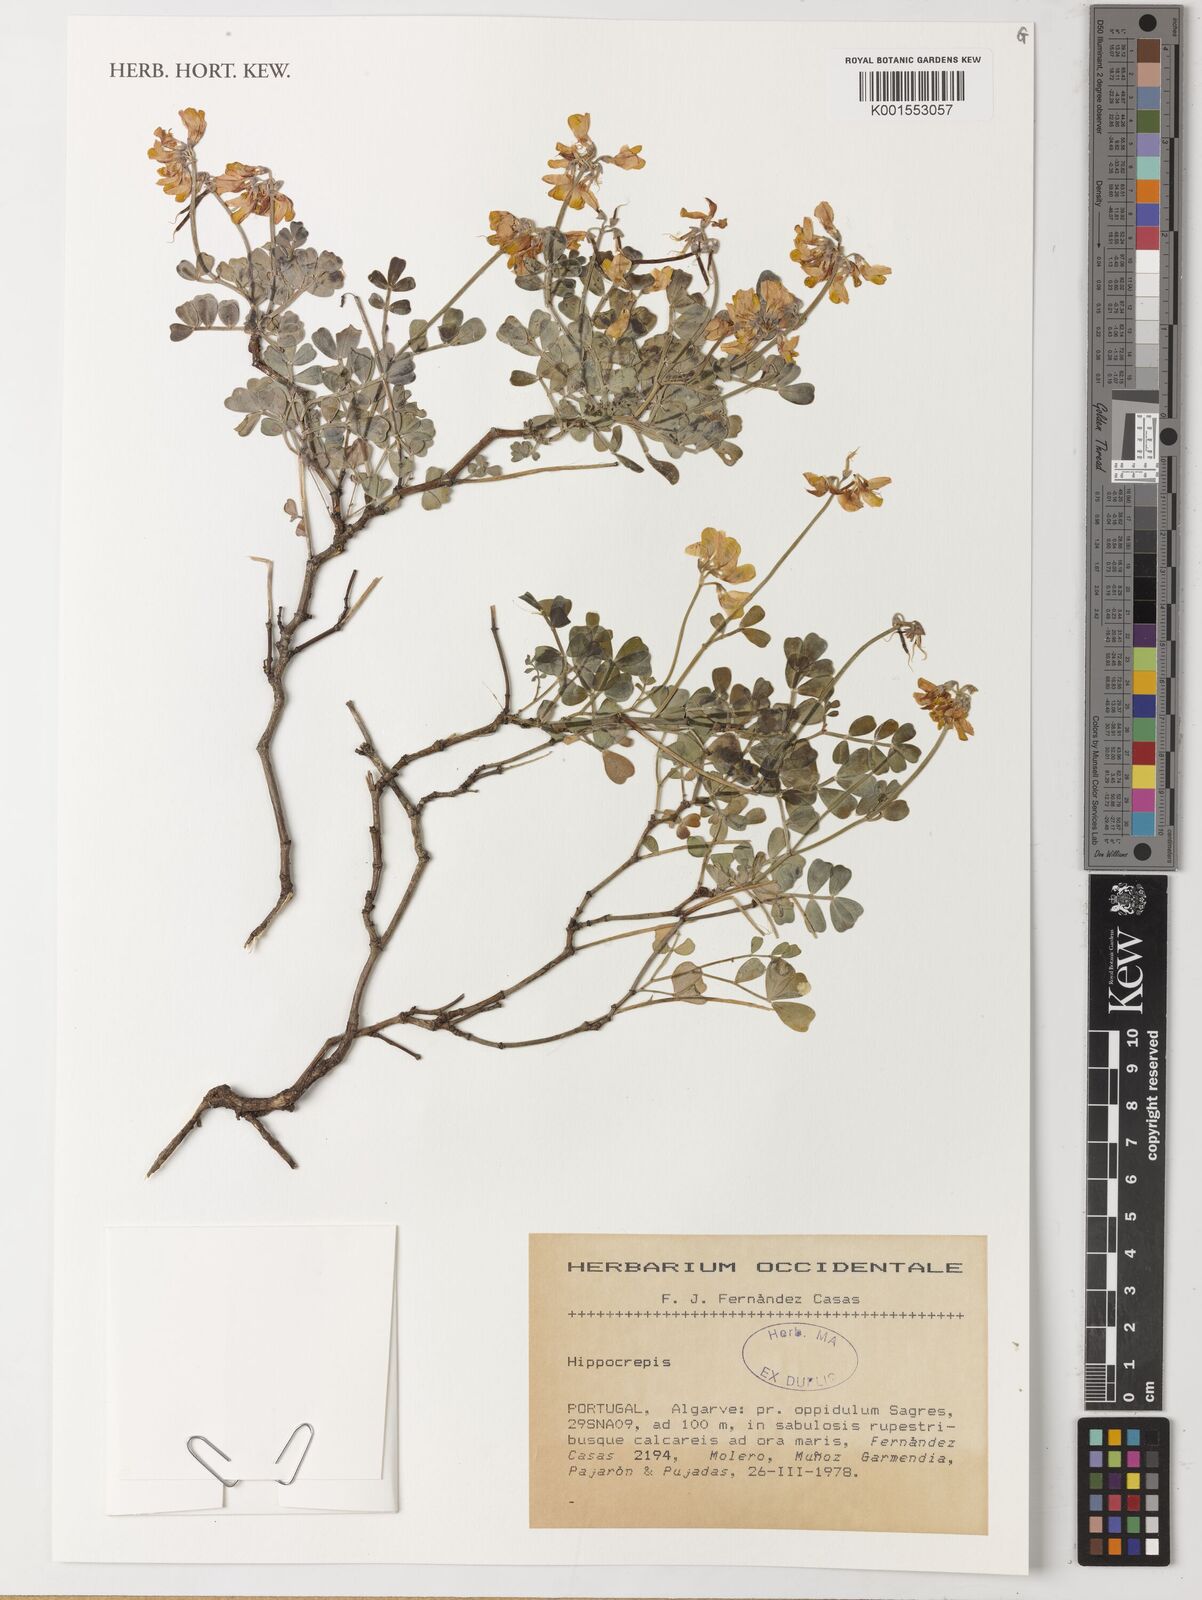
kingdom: Plantae
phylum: Tracheophyta
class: Magnoliopsida
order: Fabales
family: Fabaceae
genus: Hippocrepis
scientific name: Hippocrepis
